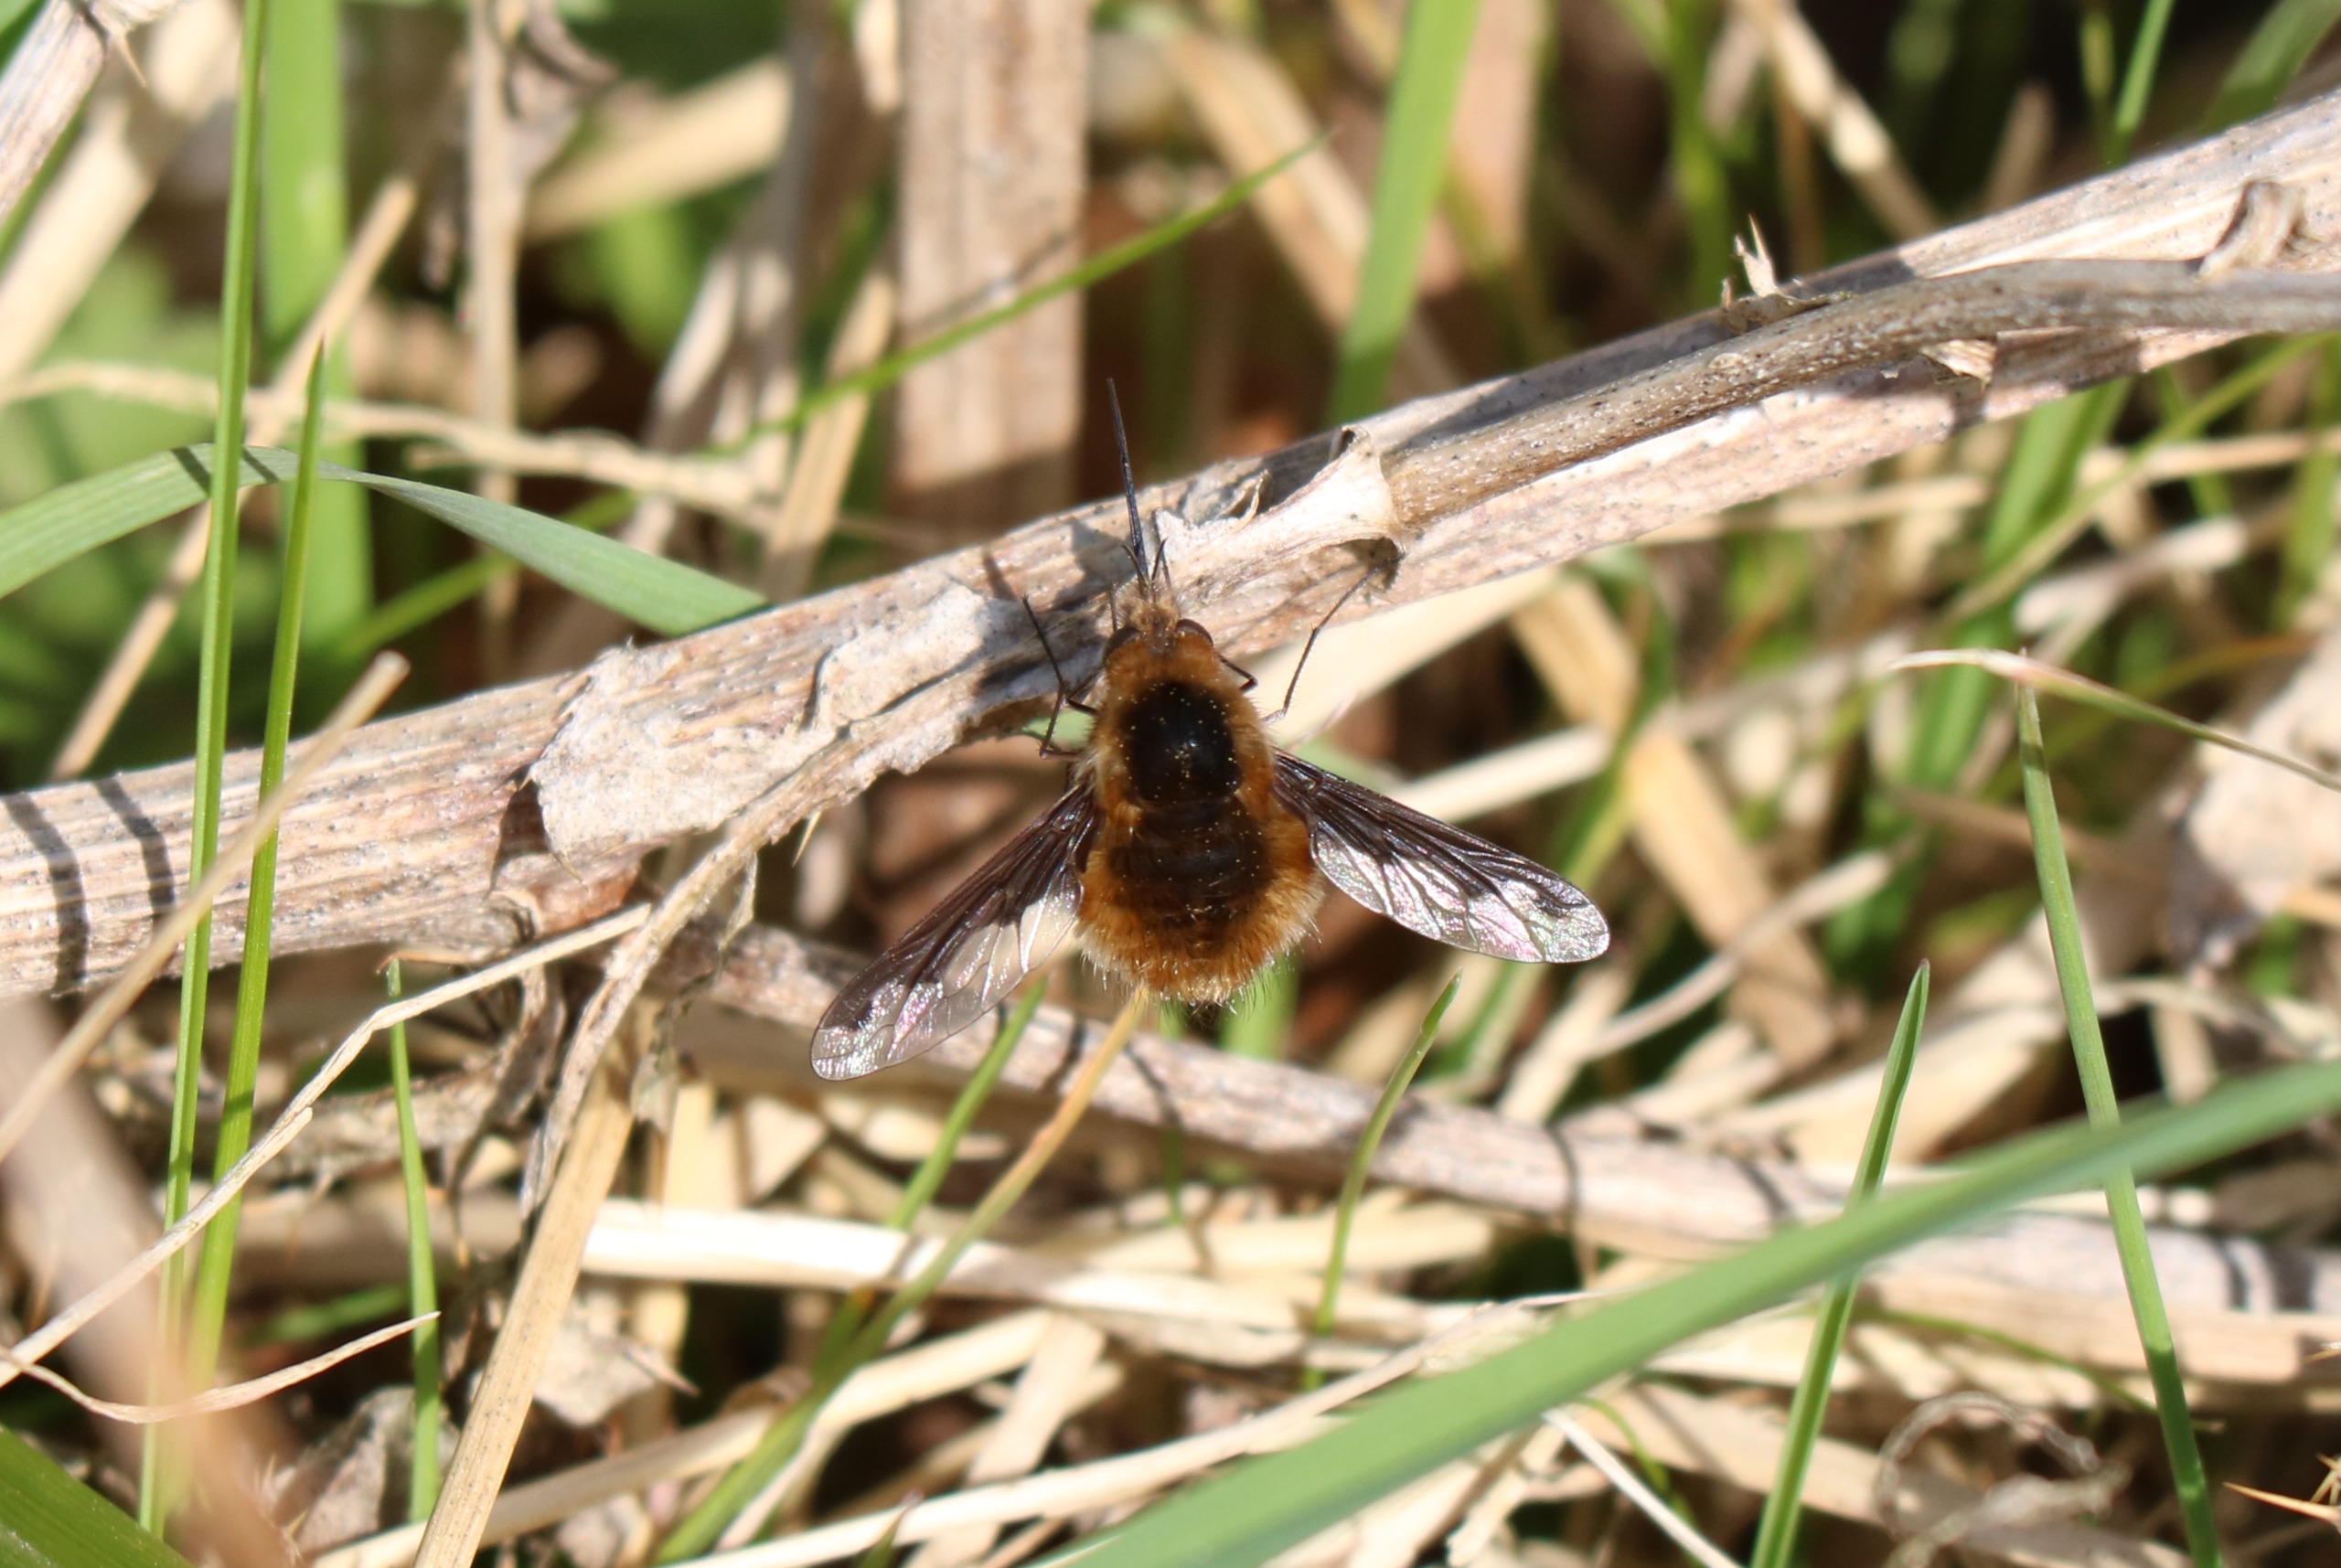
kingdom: Animalia
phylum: Arthropoda
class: Insecta
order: Diptera
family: Bombyliidae
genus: Bombylius
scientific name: Bombylius major
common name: Stor humleflue
